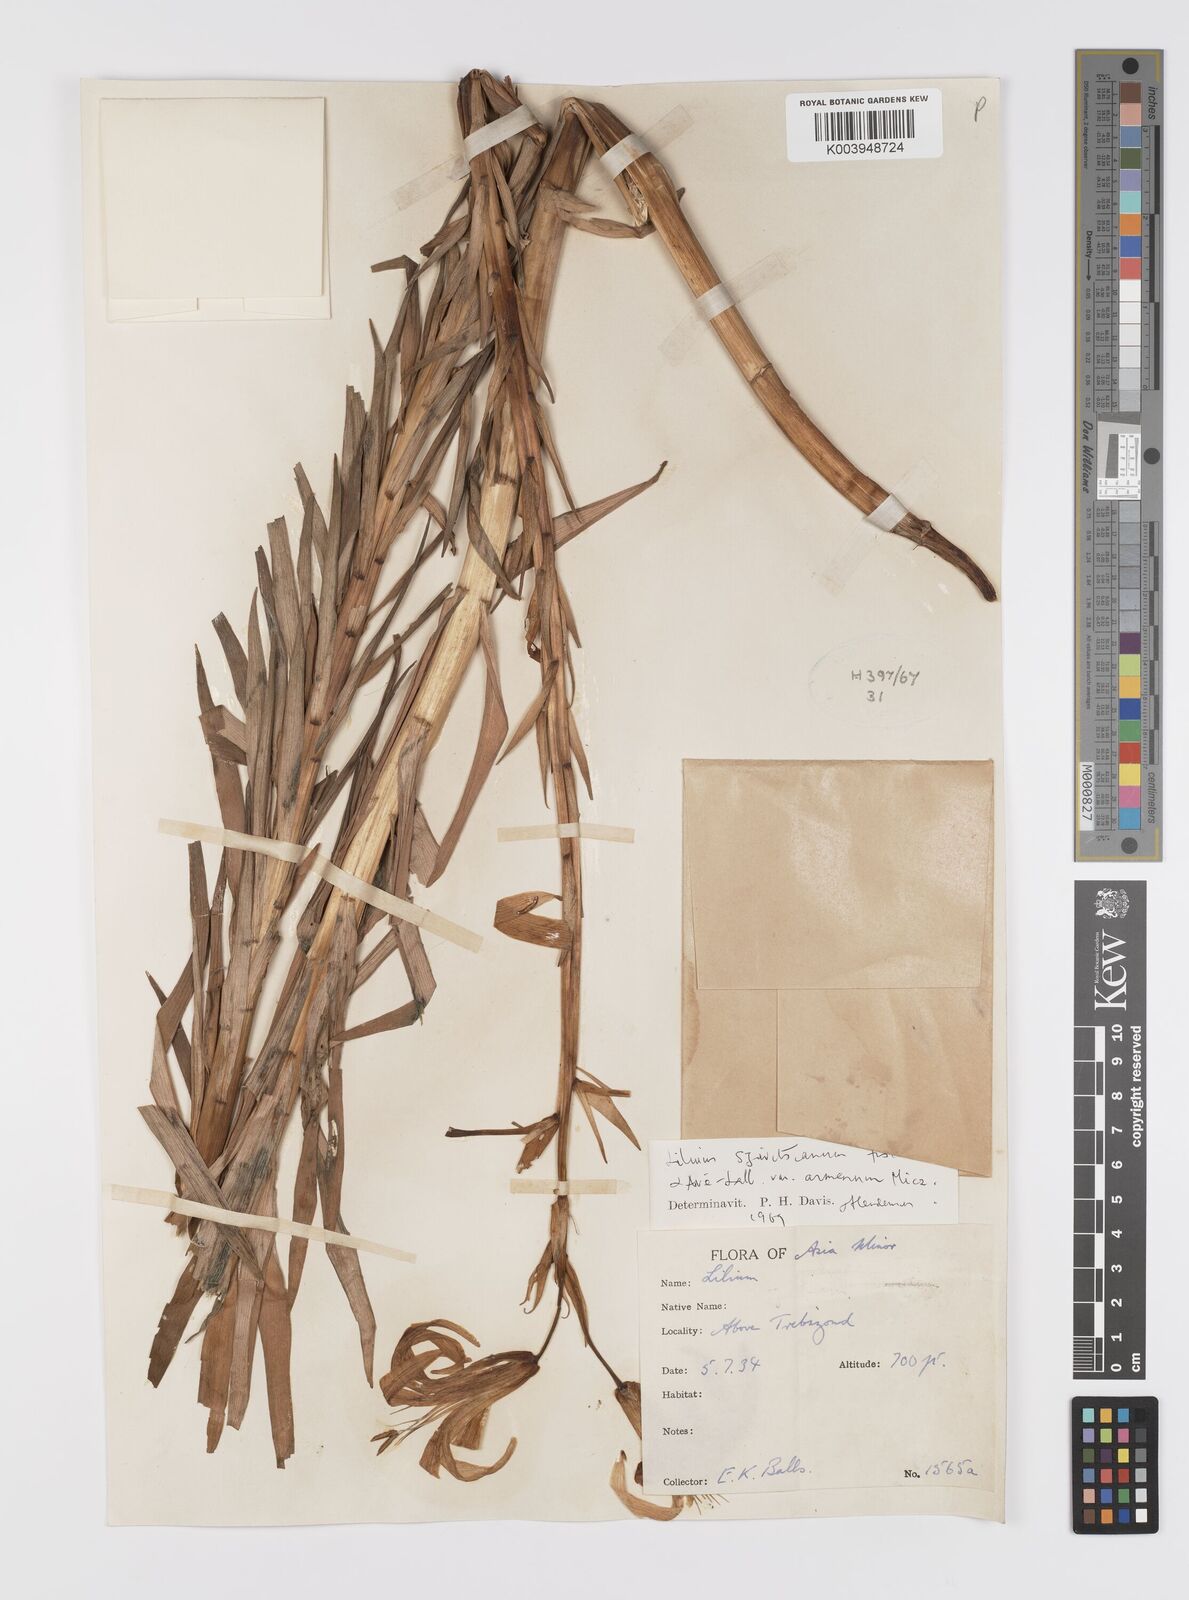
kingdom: Plantae
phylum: Tracheophyta
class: Liliopsida
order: Liliales
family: Liliaceae
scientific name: Liliaceae
